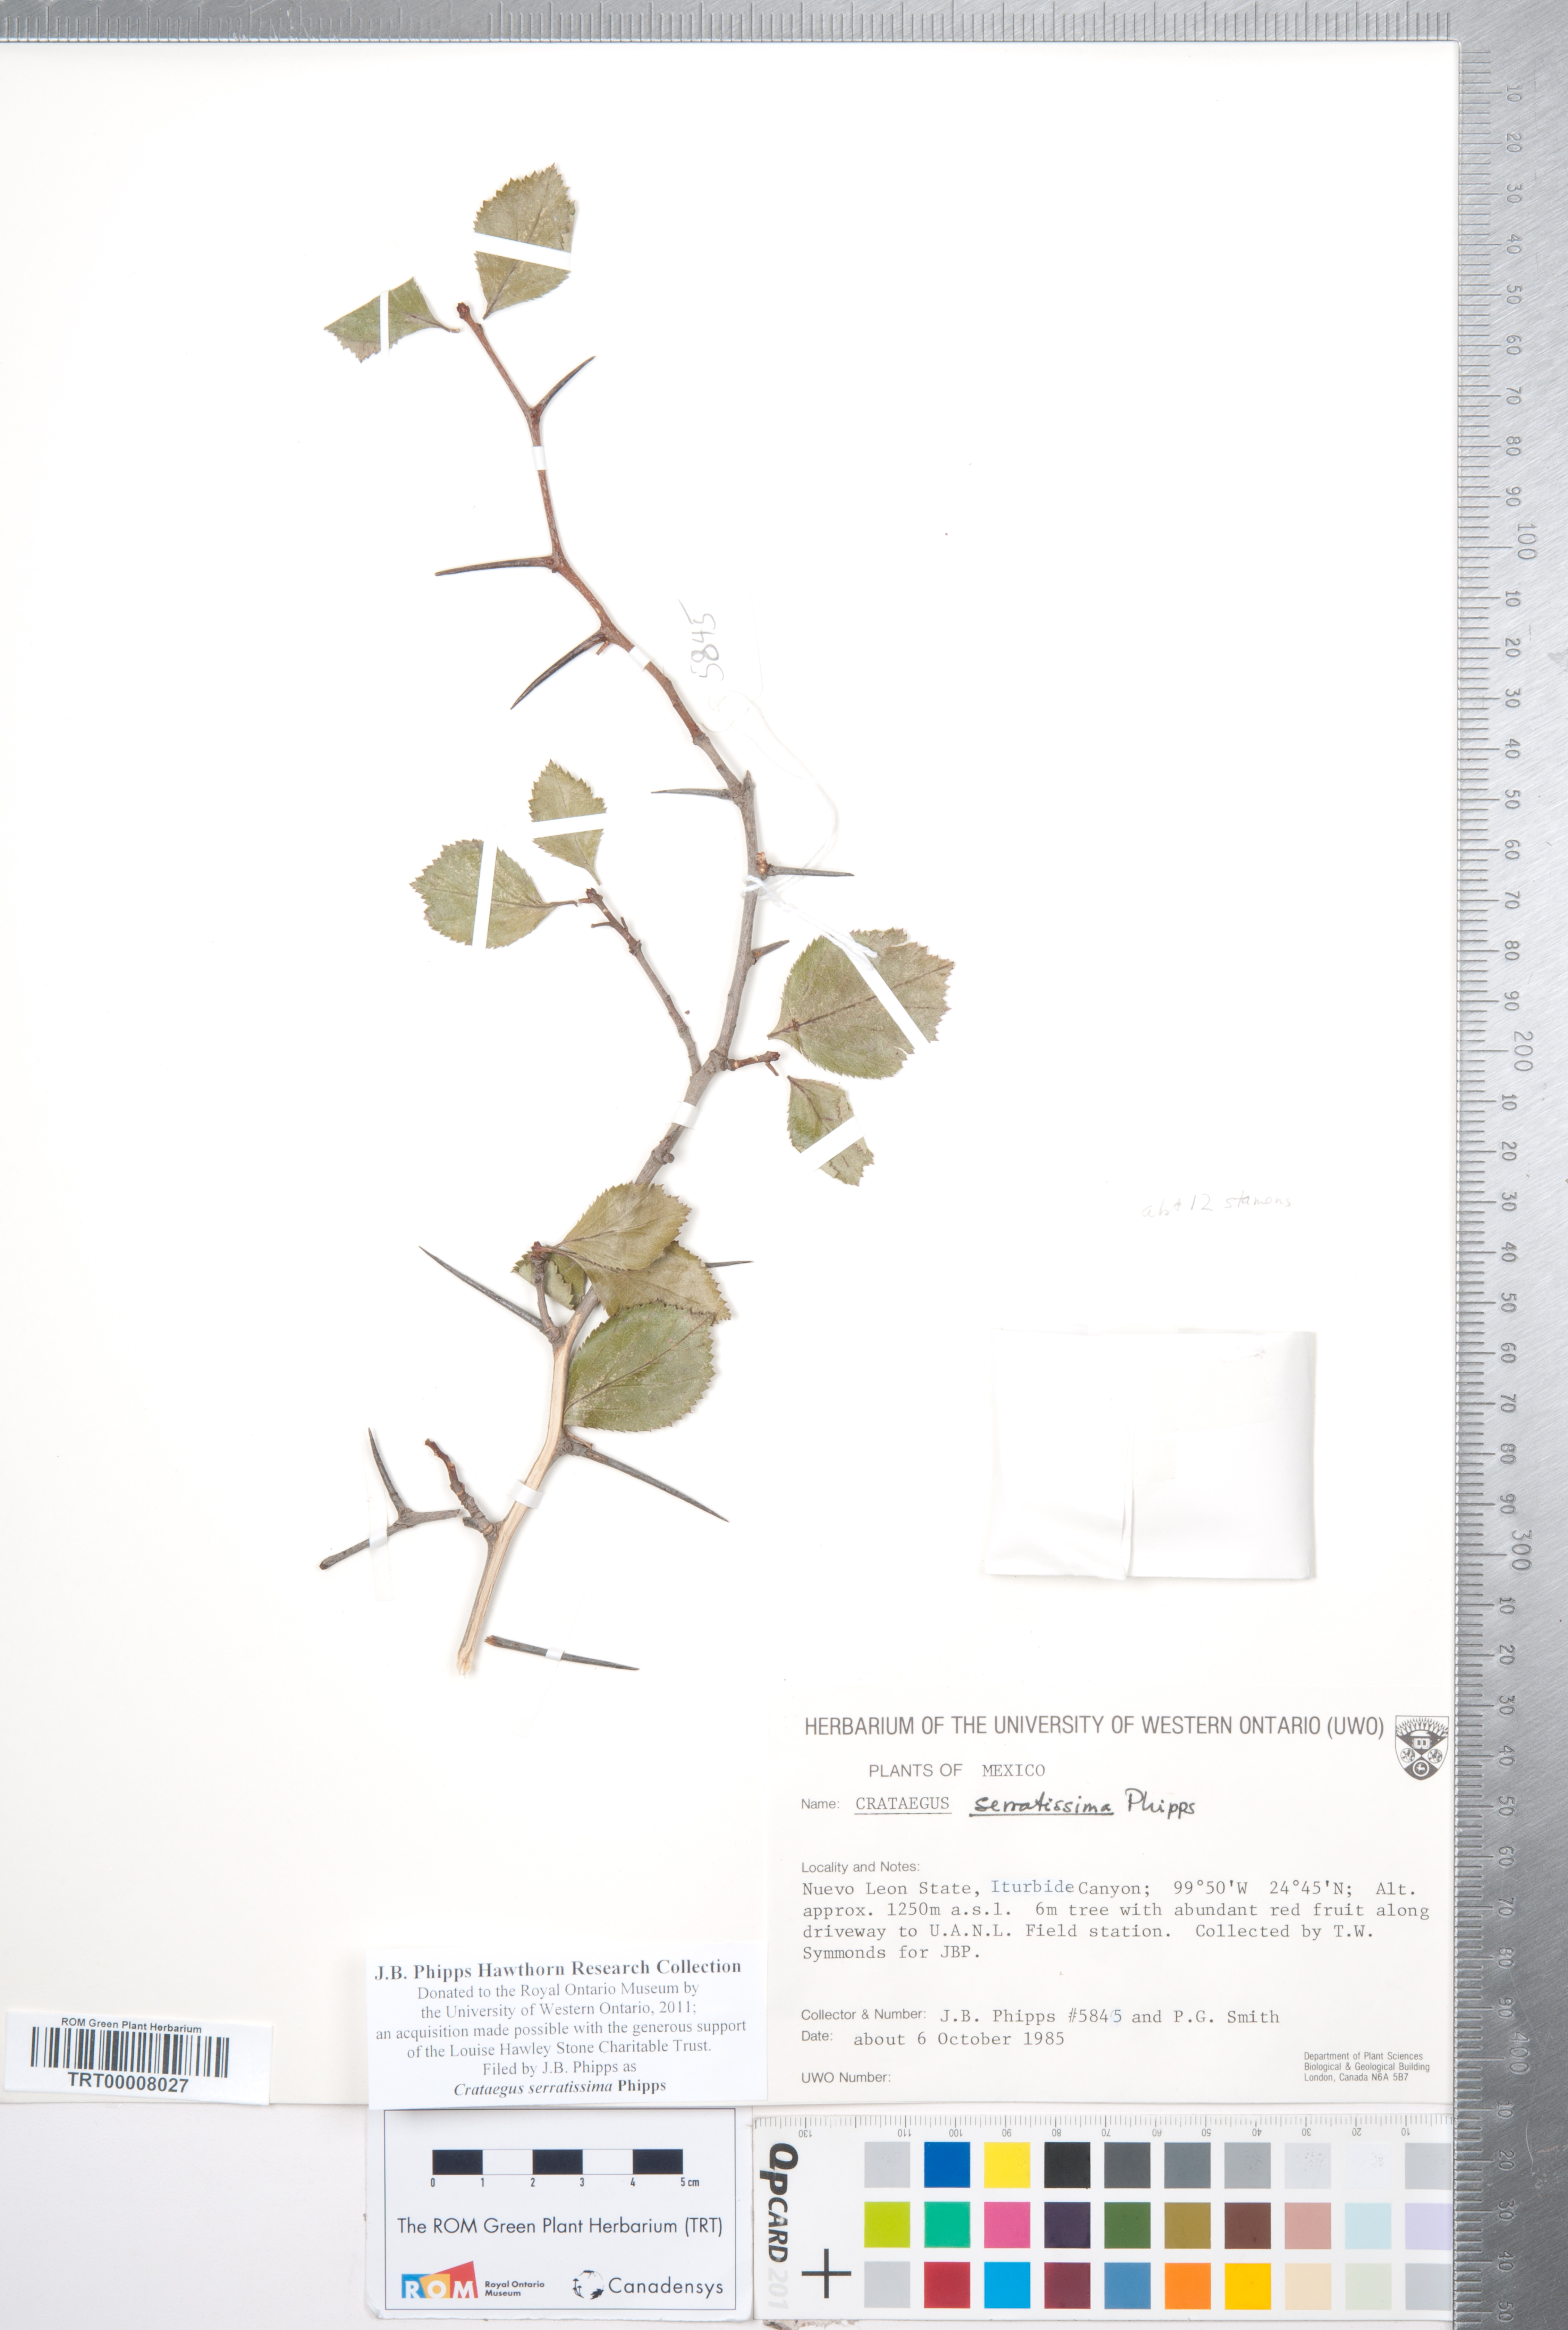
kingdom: Plantae
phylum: Tracheophyta
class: Magnoliopsida
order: Rosales
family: Rosaceae
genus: Crataegus
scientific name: Crataegus serratissima
